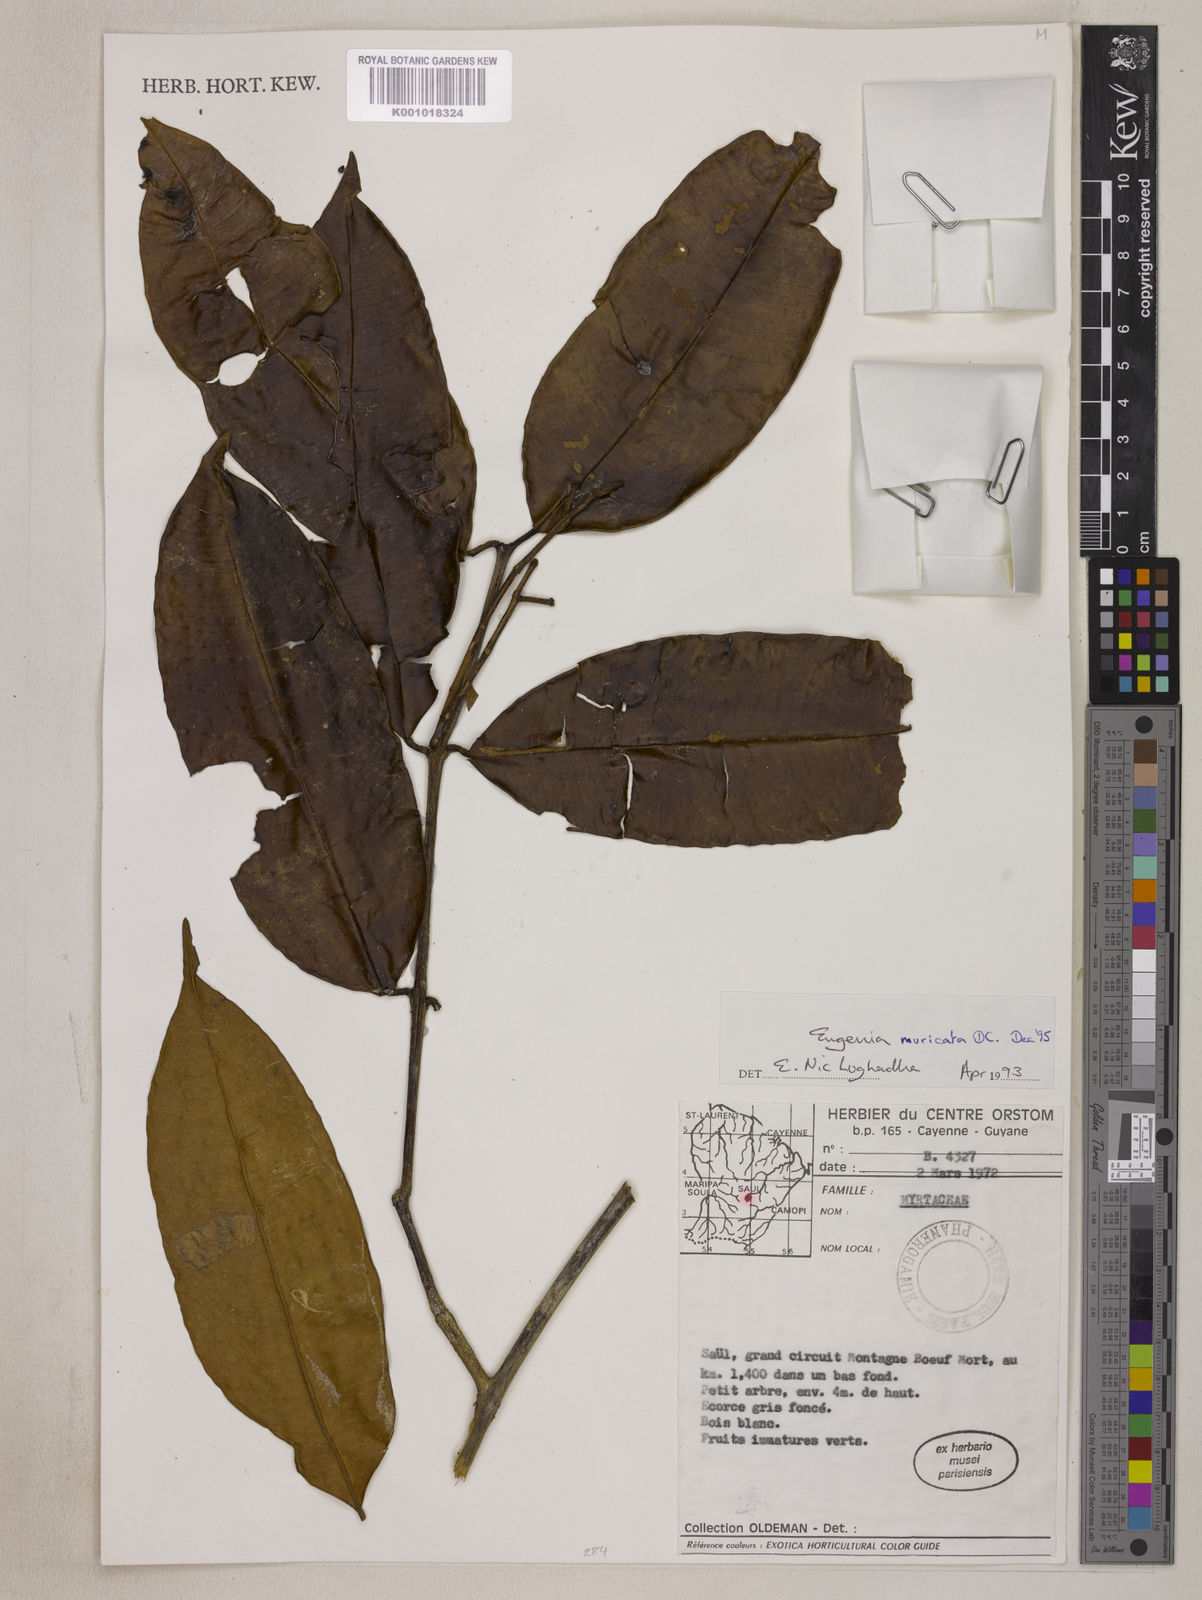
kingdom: Plantae
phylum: Tracheophyta
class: Magnoliopsida
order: Myrtales
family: Myrtaceae
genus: Eugenia
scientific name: Eugenia muricata
